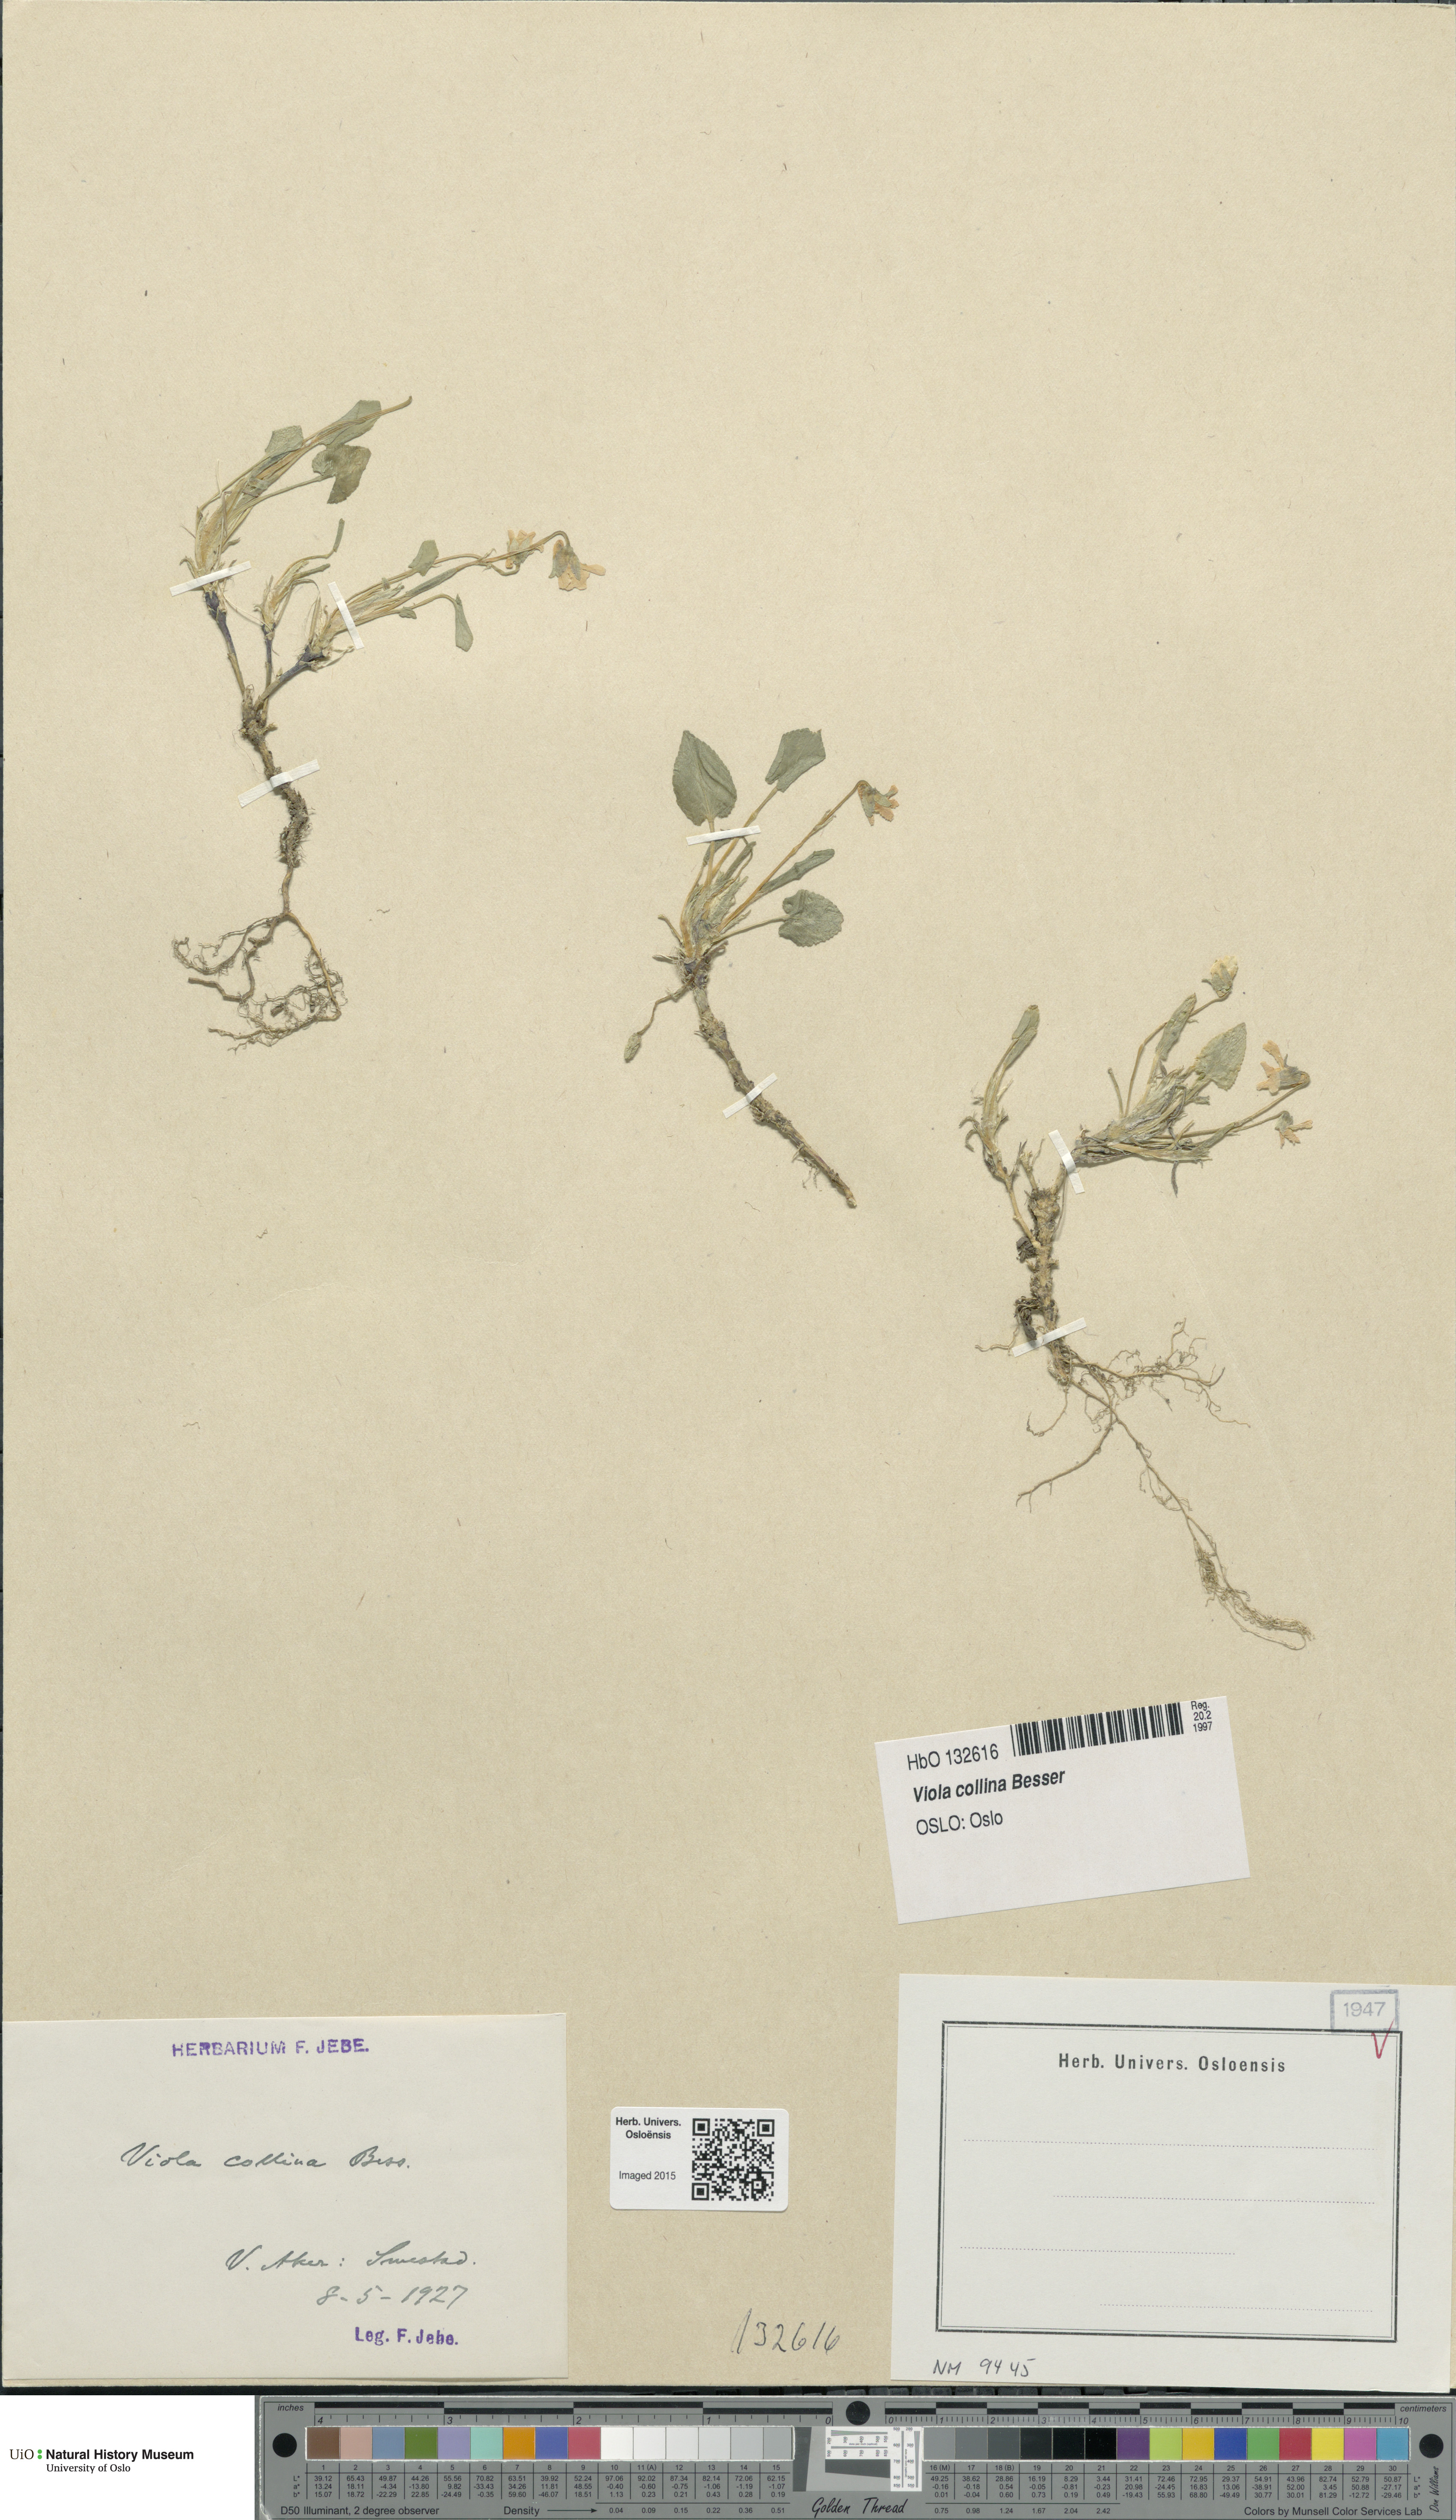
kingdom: Plantae
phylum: Tracheophyta
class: Magnoliopsida
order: Malpighiales
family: Violaceae
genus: Viola
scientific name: Viola collina
